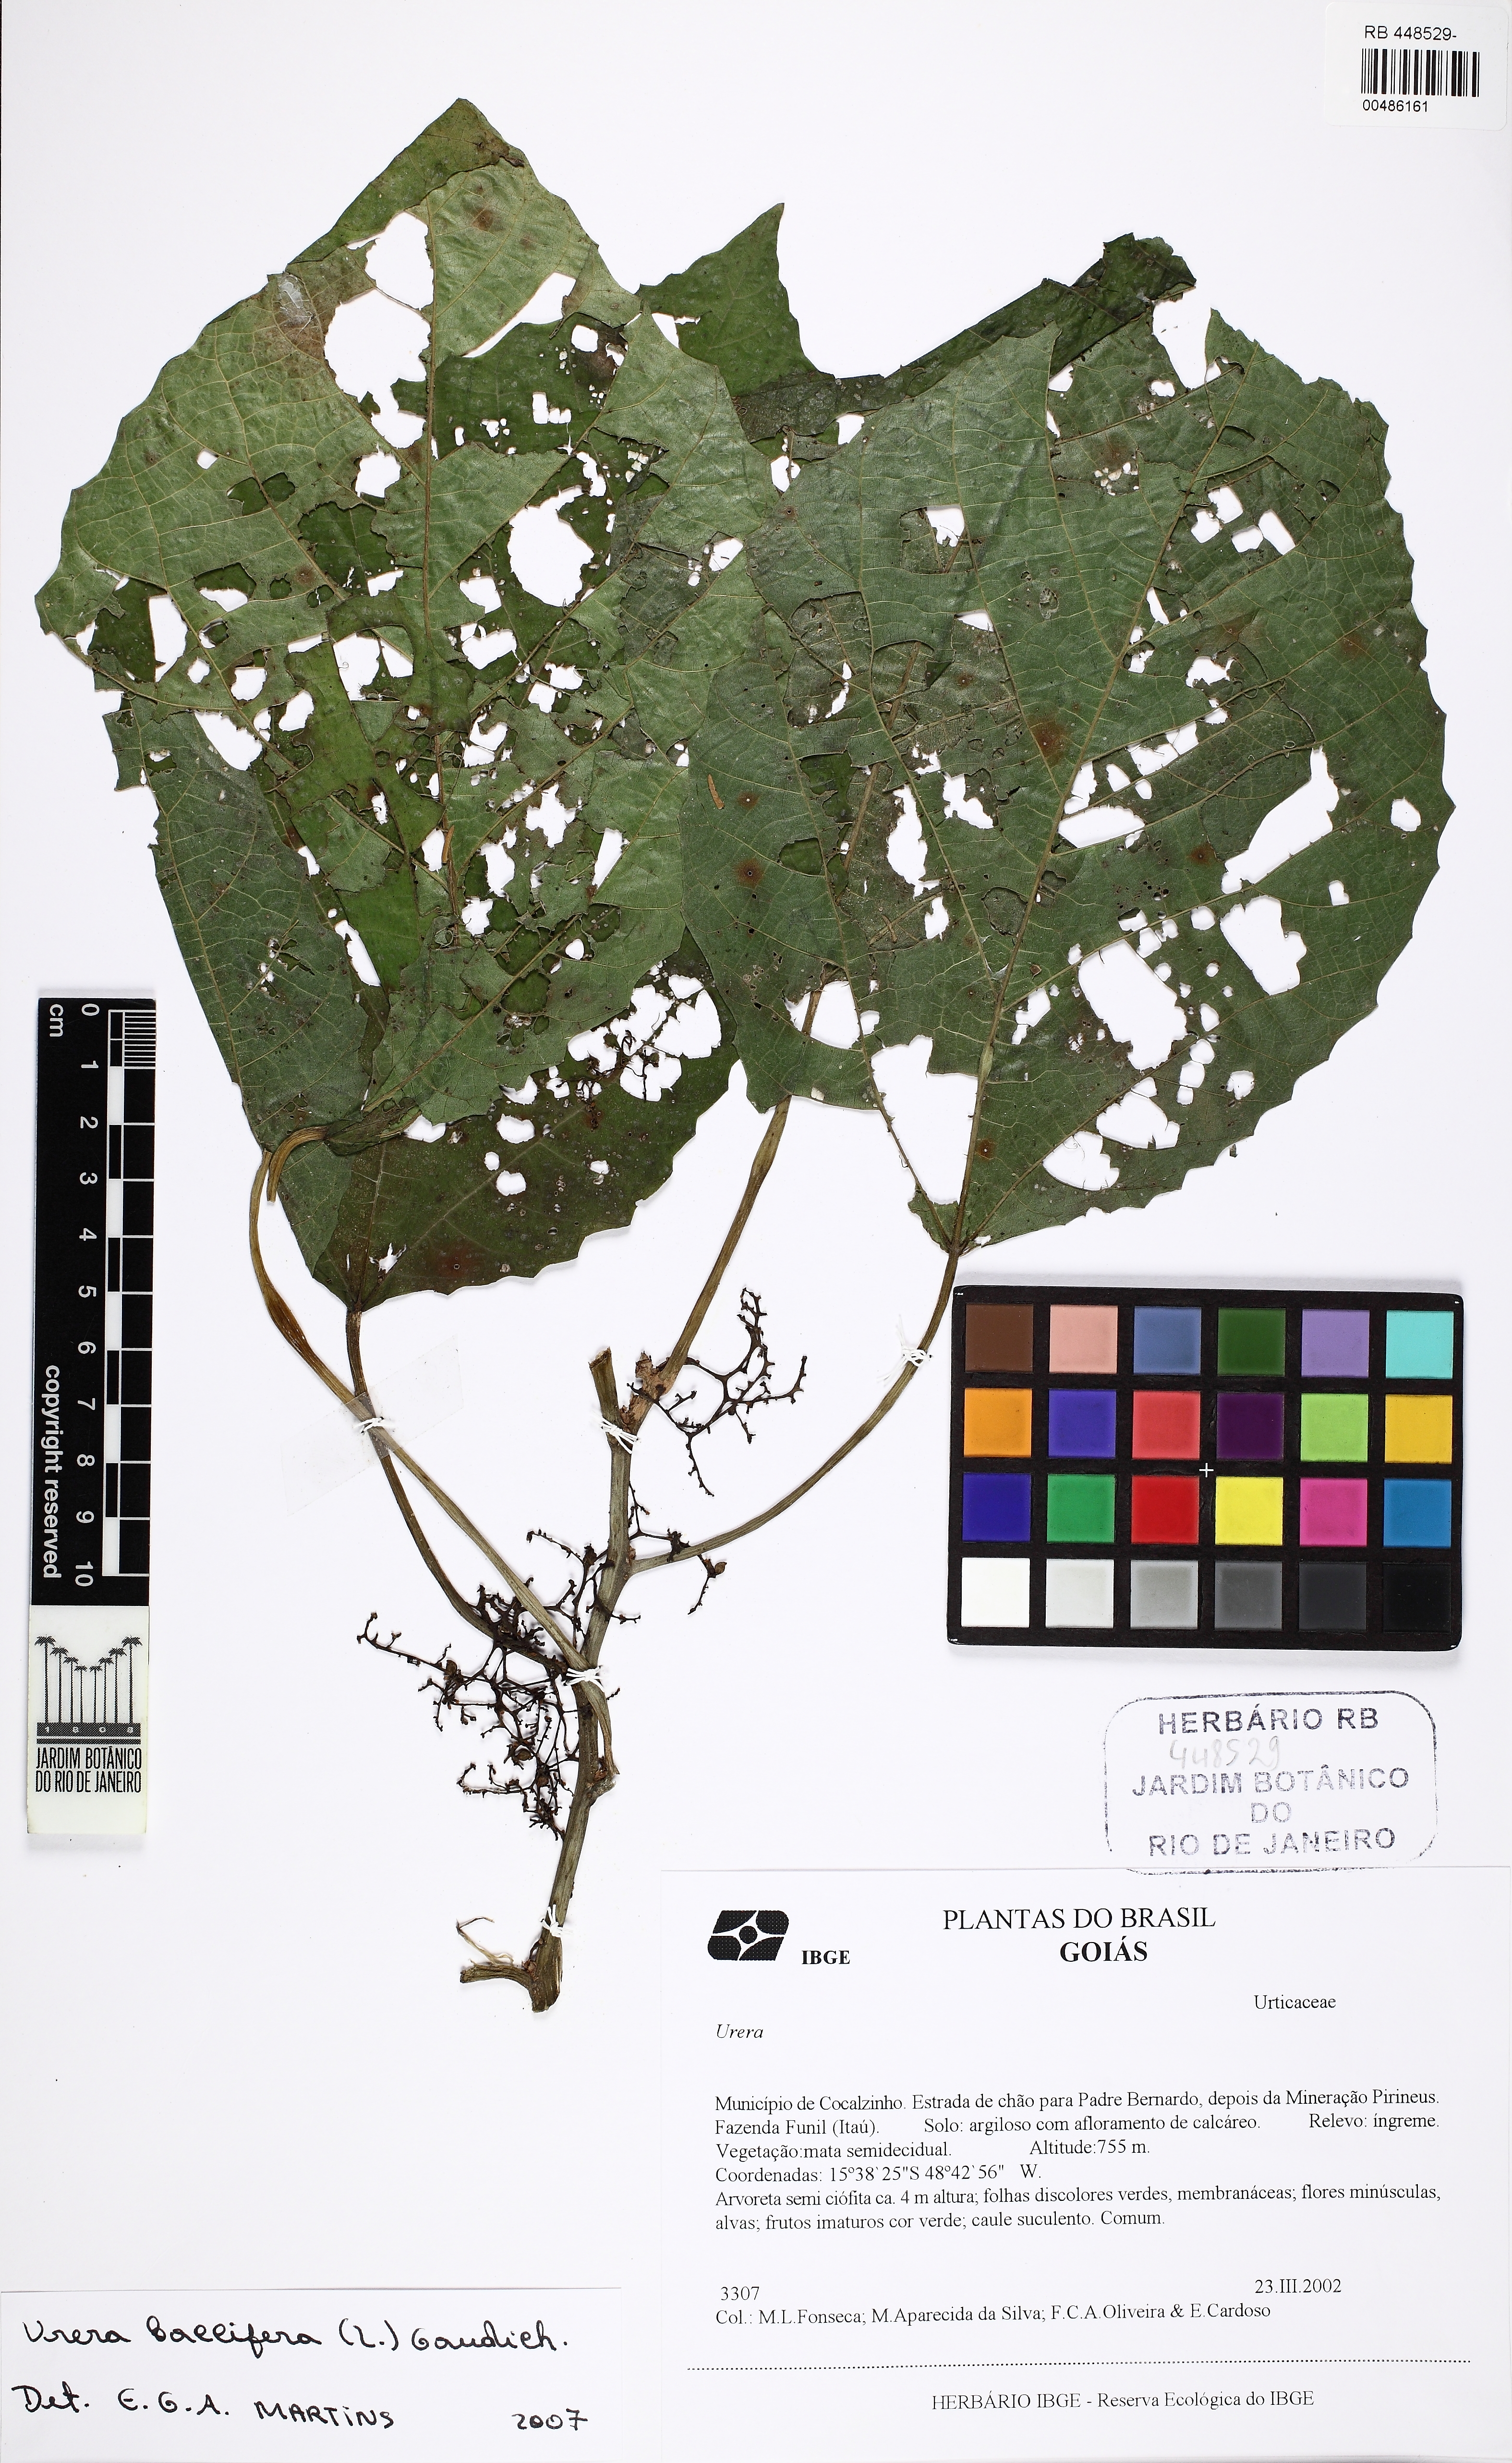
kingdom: Plantae
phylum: Tracheophyta
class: Magnoliopsida
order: Rosales
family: Urticaceae
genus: Urera
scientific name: Urera baccifera
